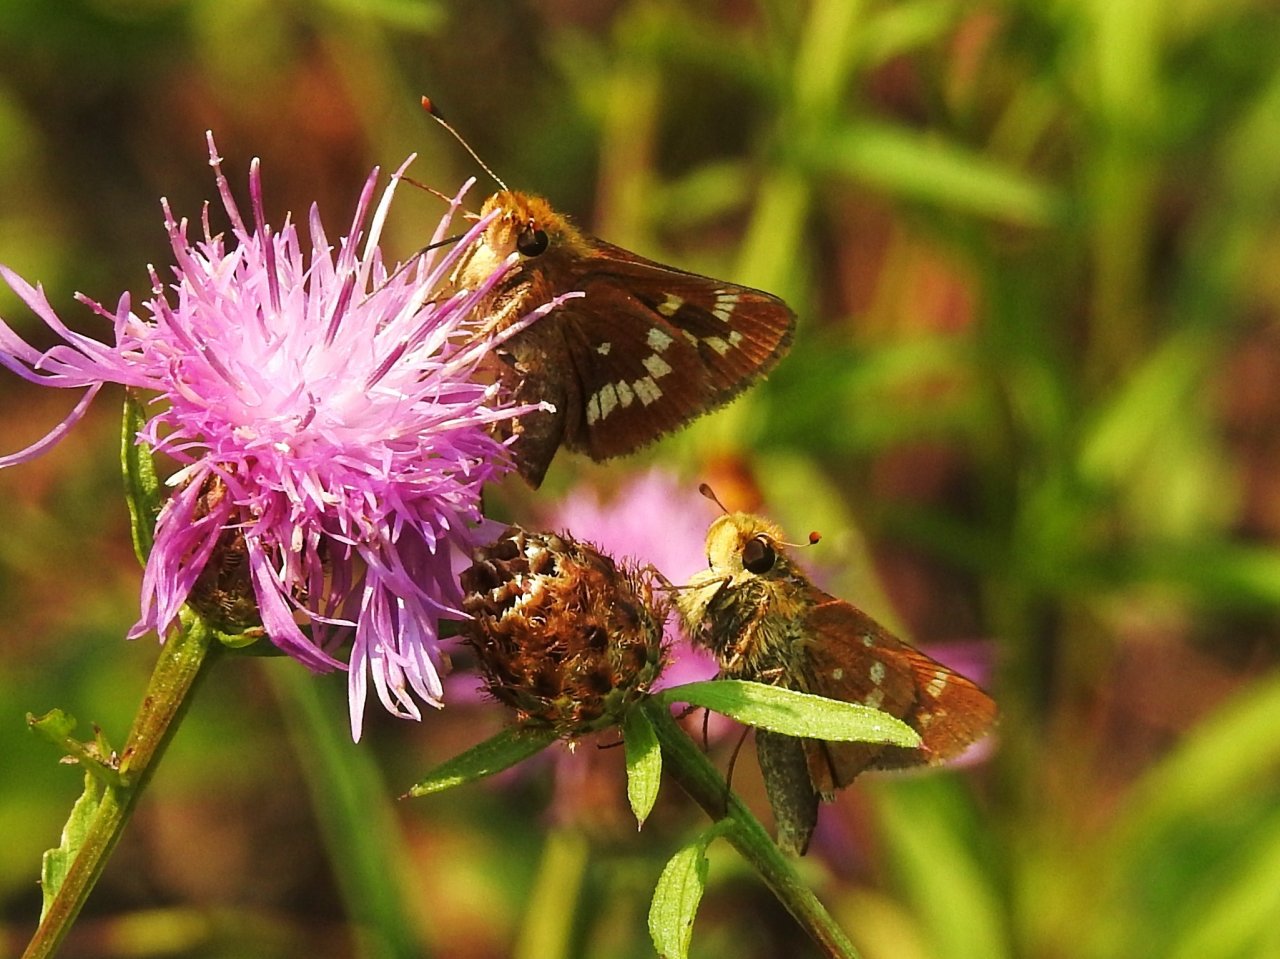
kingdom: Animalia
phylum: Arthropoda
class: Insecta
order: Lepidoptera
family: Hesperiidae
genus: Hesperia
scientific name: Hesperia leonardus
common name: Leonard's Skipper
